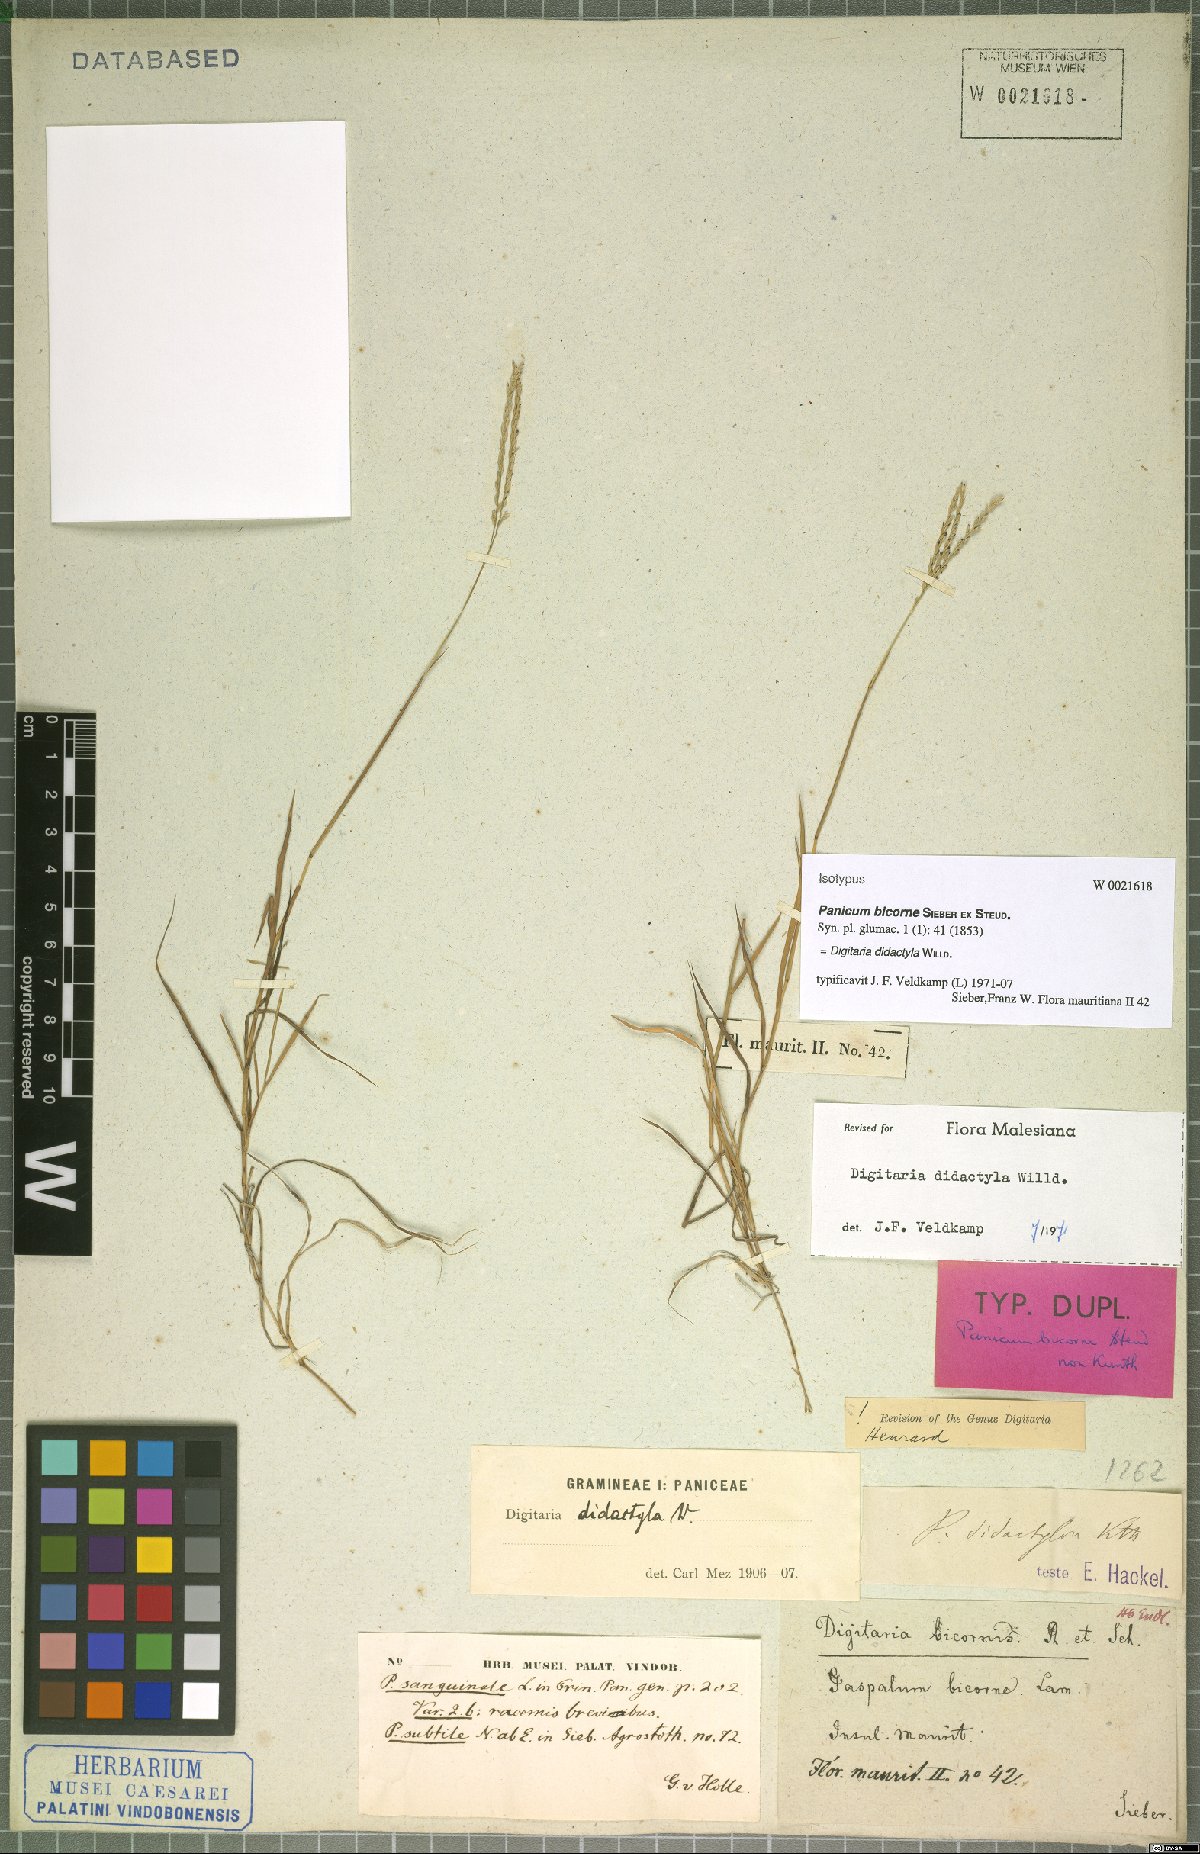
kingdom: Plantae
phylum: Tracheophyta
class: Liliopsida
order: Poales
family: Poaceae
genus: Digitaria
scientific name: Digitaria didactyla
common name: Blue couch
